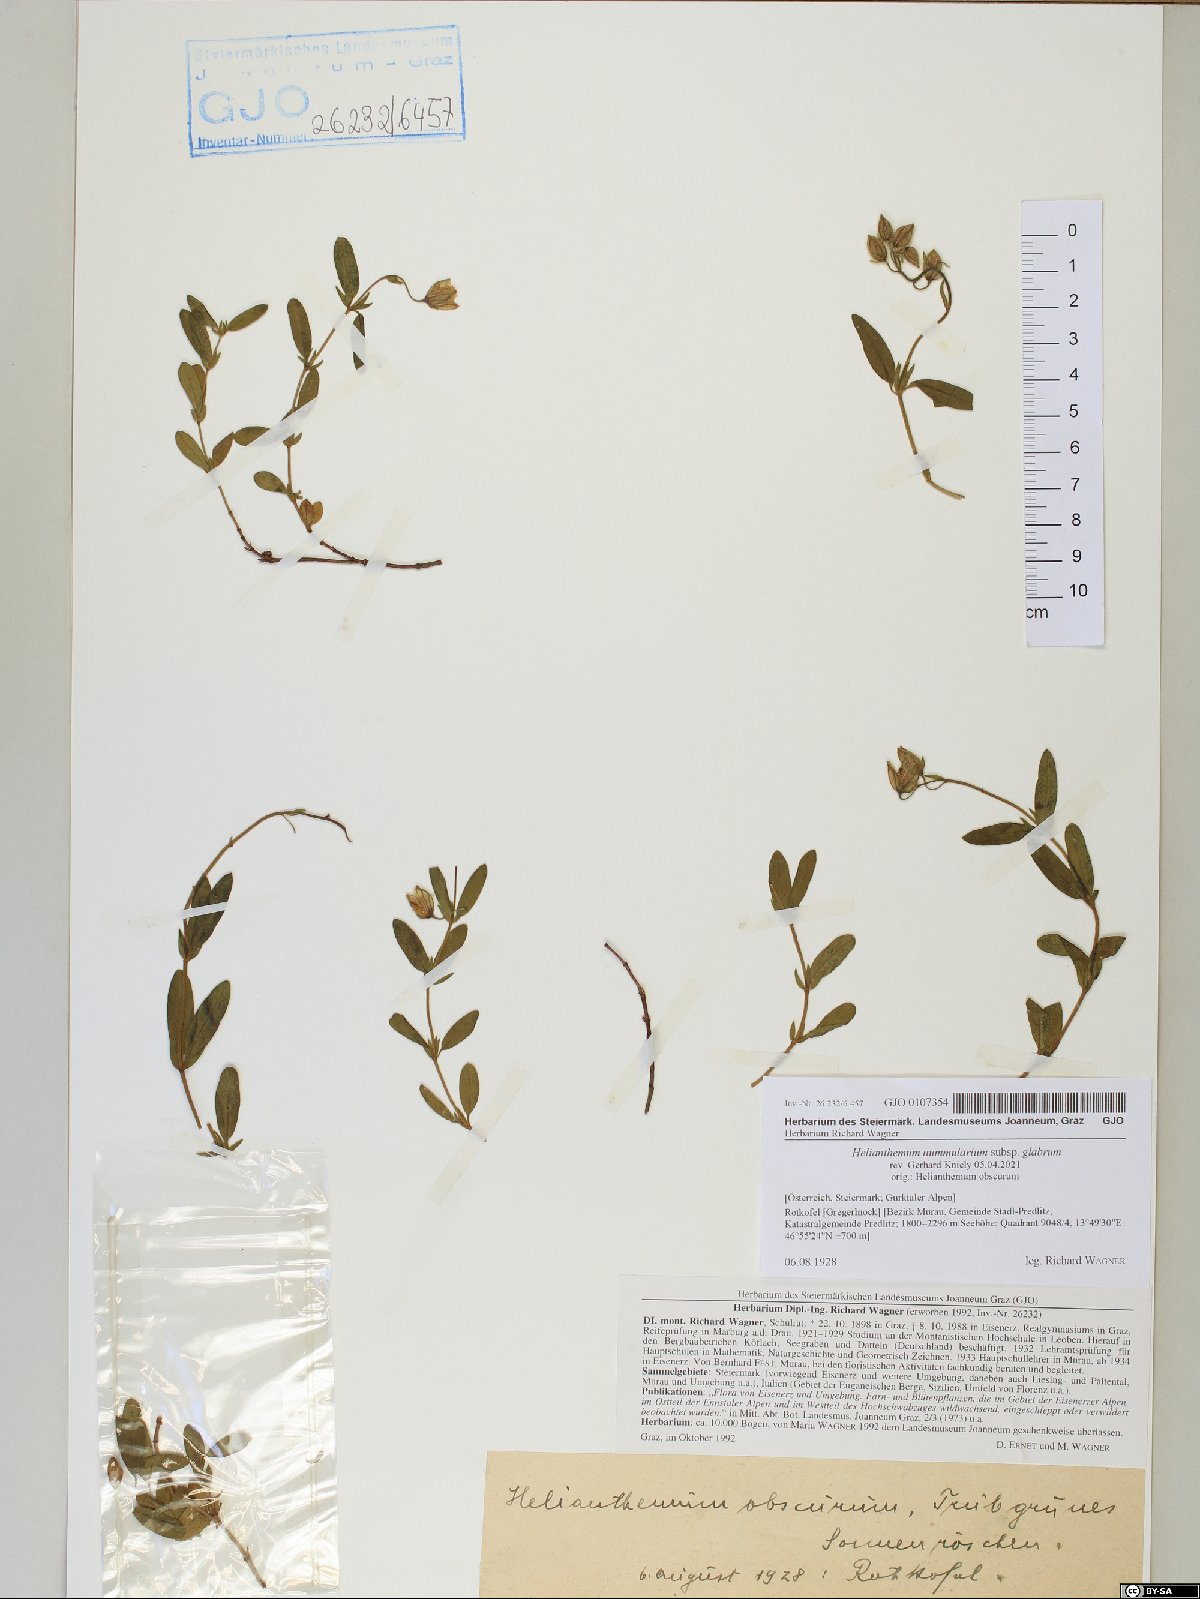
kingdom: Plantae
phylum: Tracheophyta
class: Magnoliopsida
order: Malvales
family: Cistaceae
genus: Helianthemum
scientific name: Helianthemum nummularium
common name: Common rock-rose
